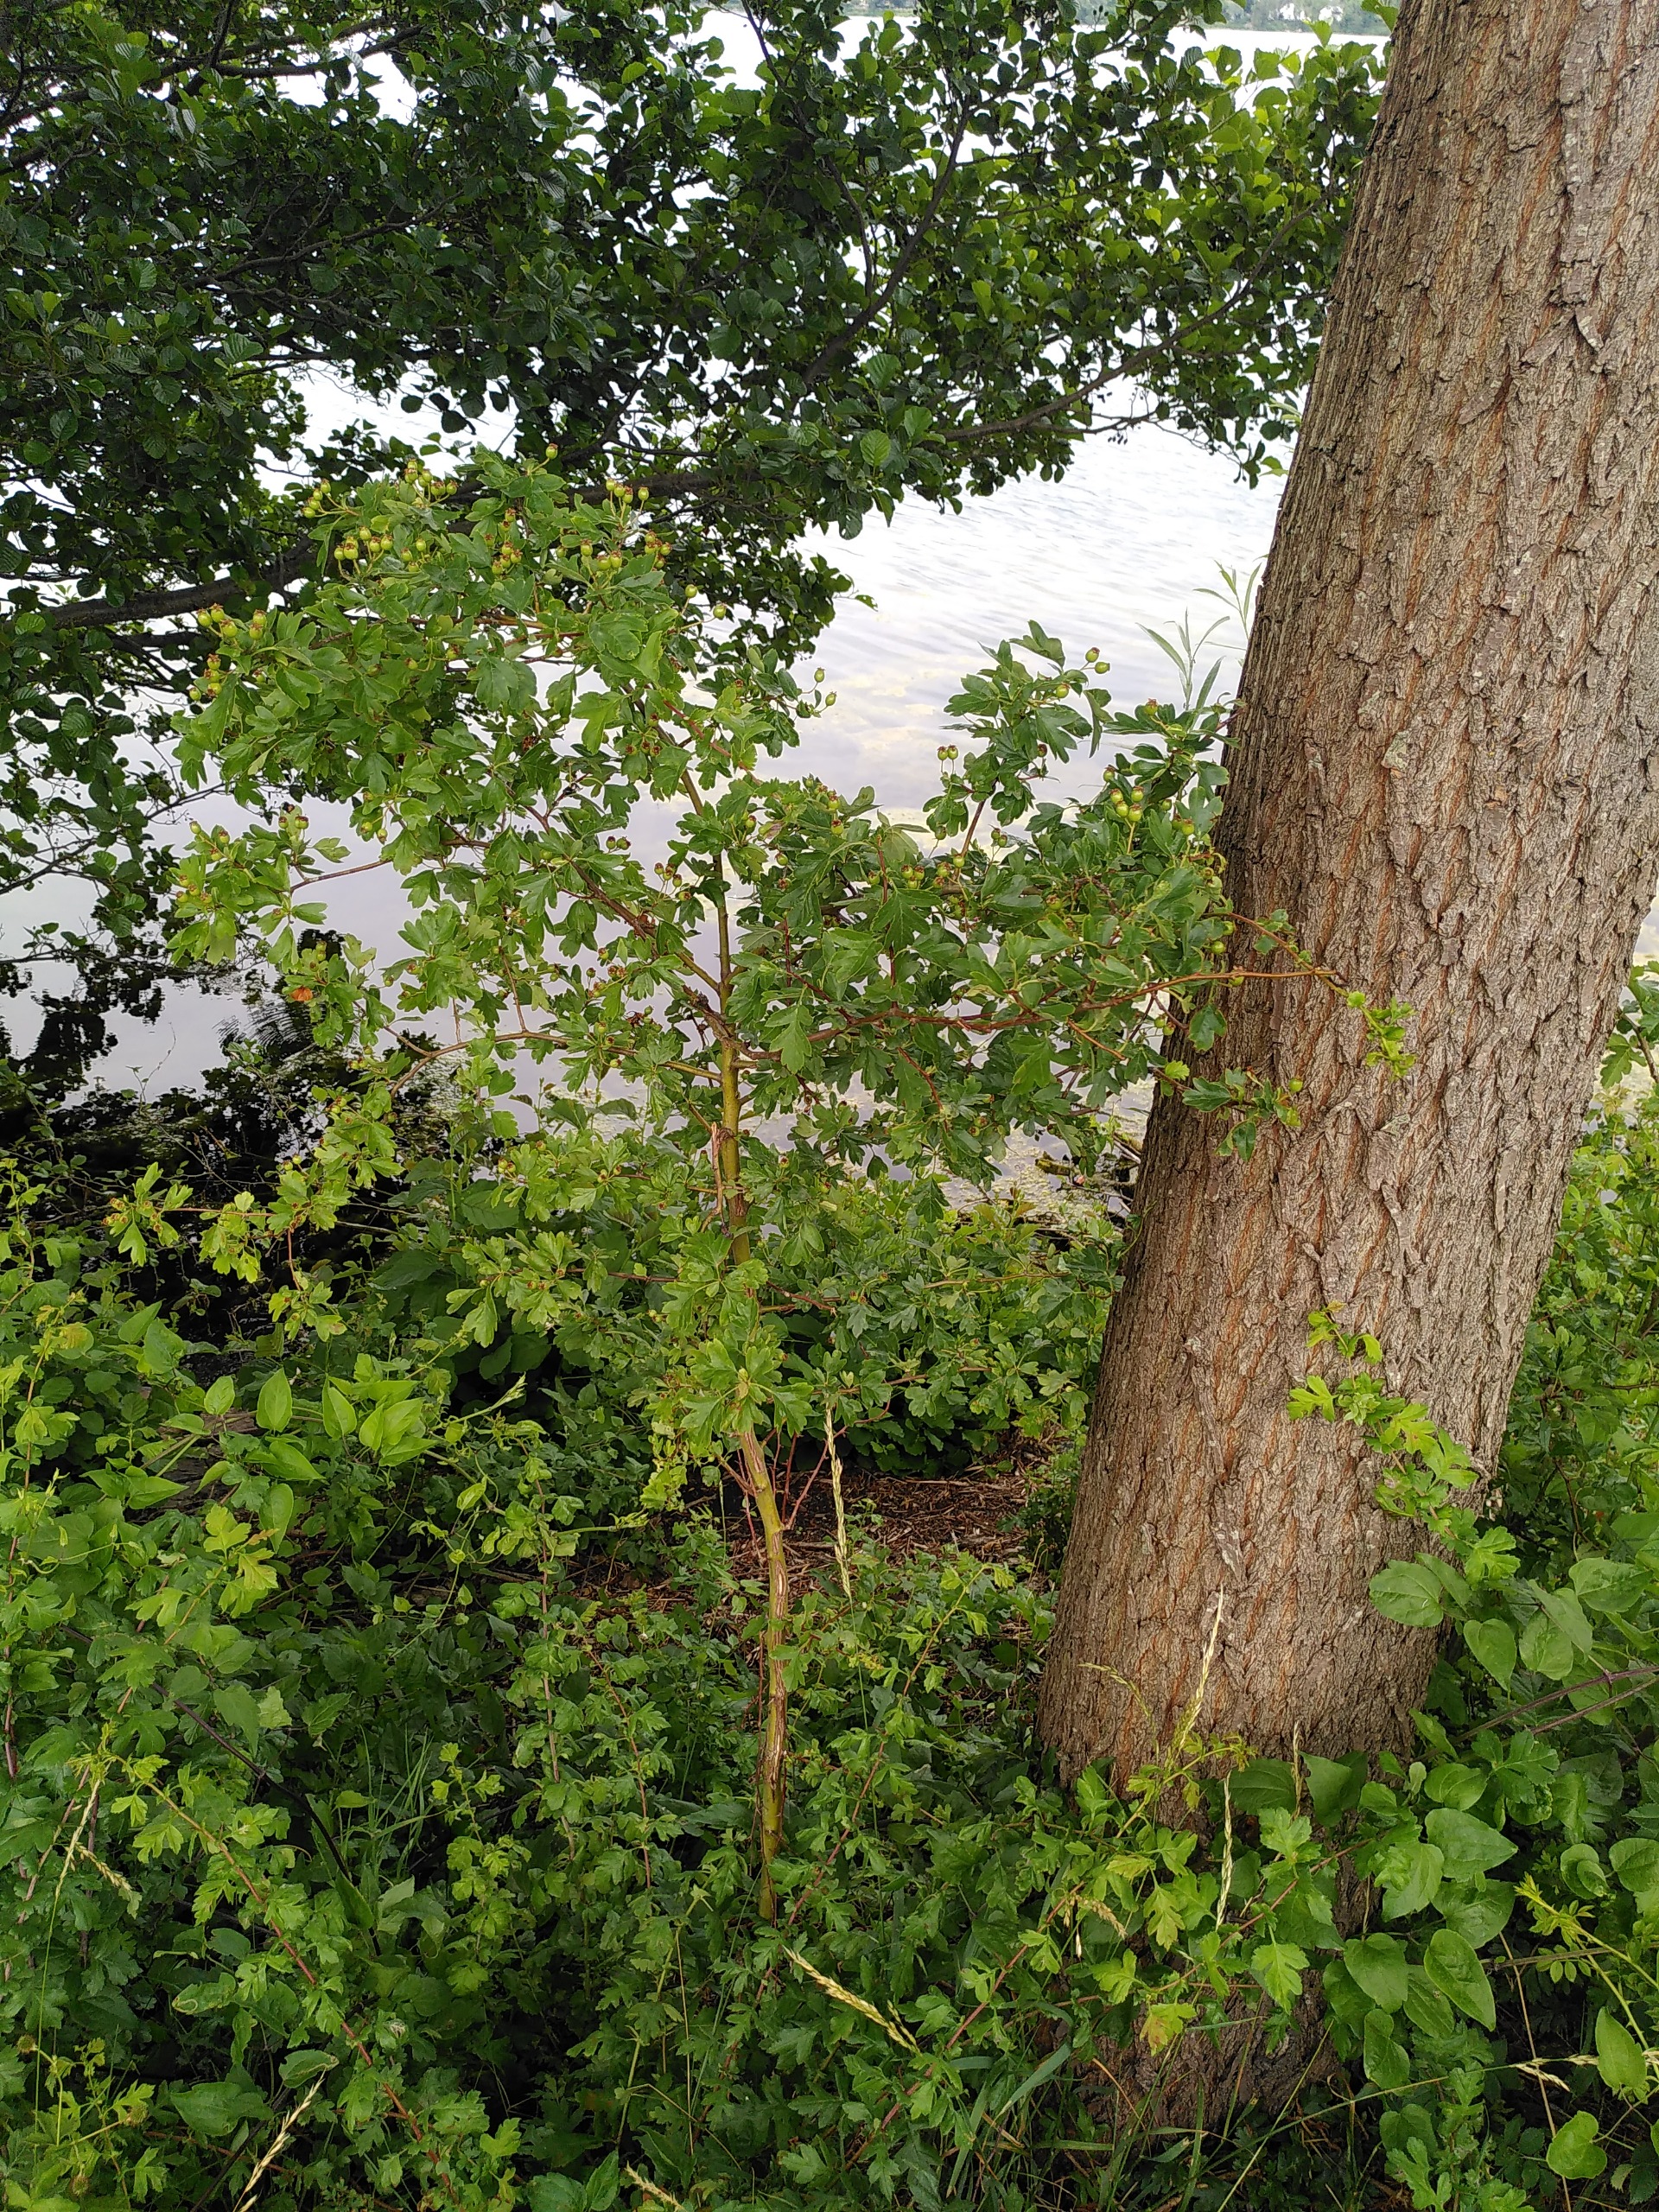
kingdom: Plantae
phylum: Tracheophyta
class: Magnoliopsida
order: Rosales
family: Rosaceae
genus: Crataegus
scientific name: Crataegus monogyna
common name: Engriflet hvidtjørn
